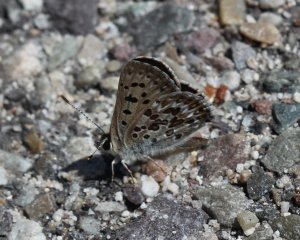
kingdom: Animalia
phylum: Arthropoda
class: Insecta
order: Lepidoptera
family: Lycaenidae
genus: Lycaena
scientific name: Lycaena editha
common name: Edith's Copper
